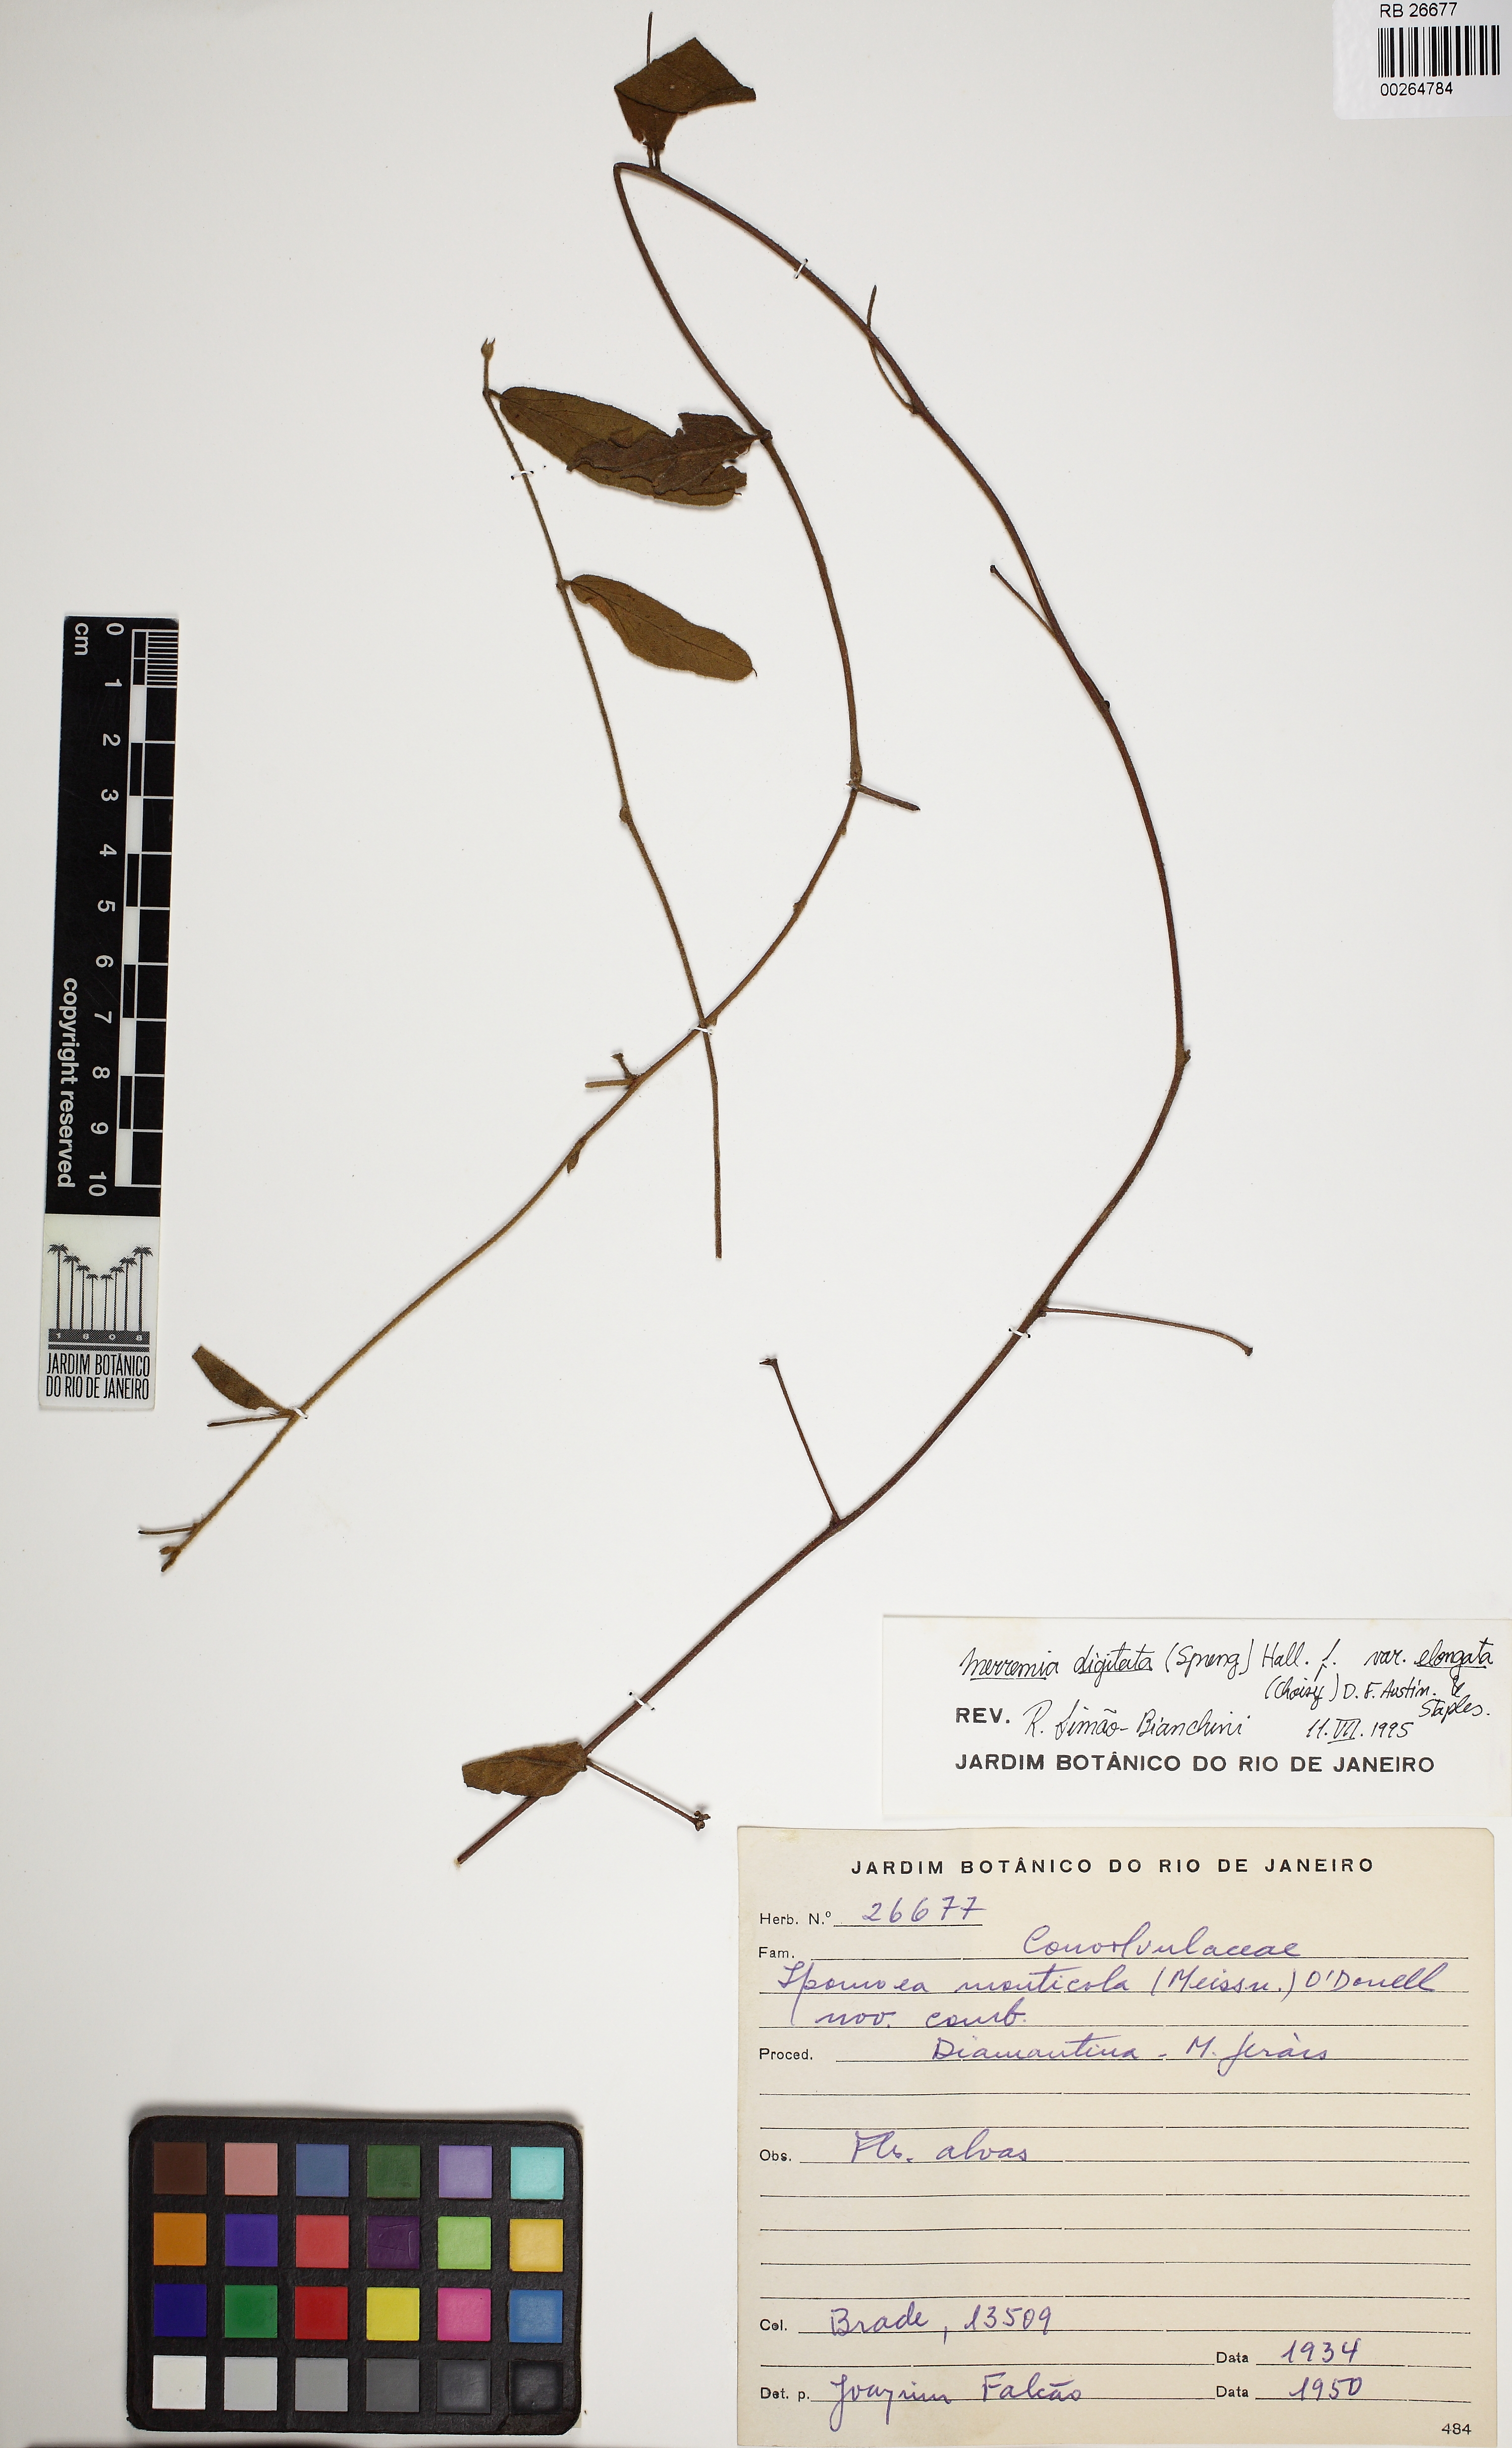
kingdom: Plantae
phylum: Tracheophyta
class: Magnoliopsida
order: Solanales
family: Convolvulaceae
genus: Distimake
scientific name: Distimake maragniensis
